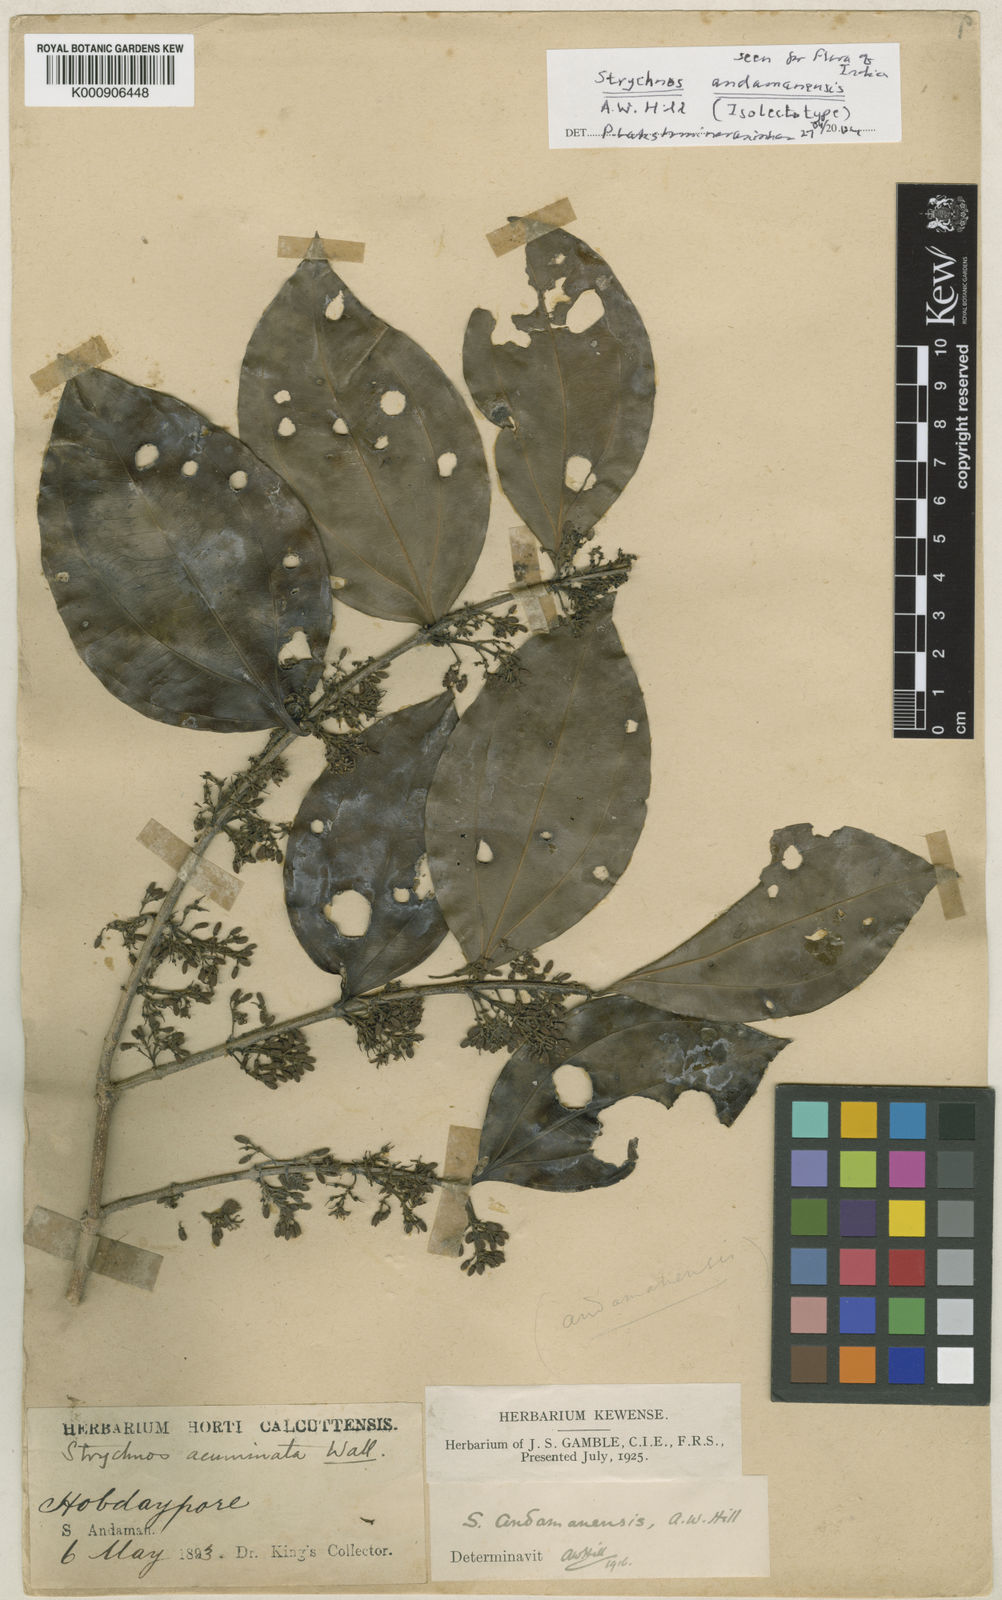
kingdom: Plantae
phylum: Tracheophyta
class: Magnoliopsida
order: Gentianales
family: Loganiaceae
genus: Strychnos
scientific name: Strychnos andamanensis
